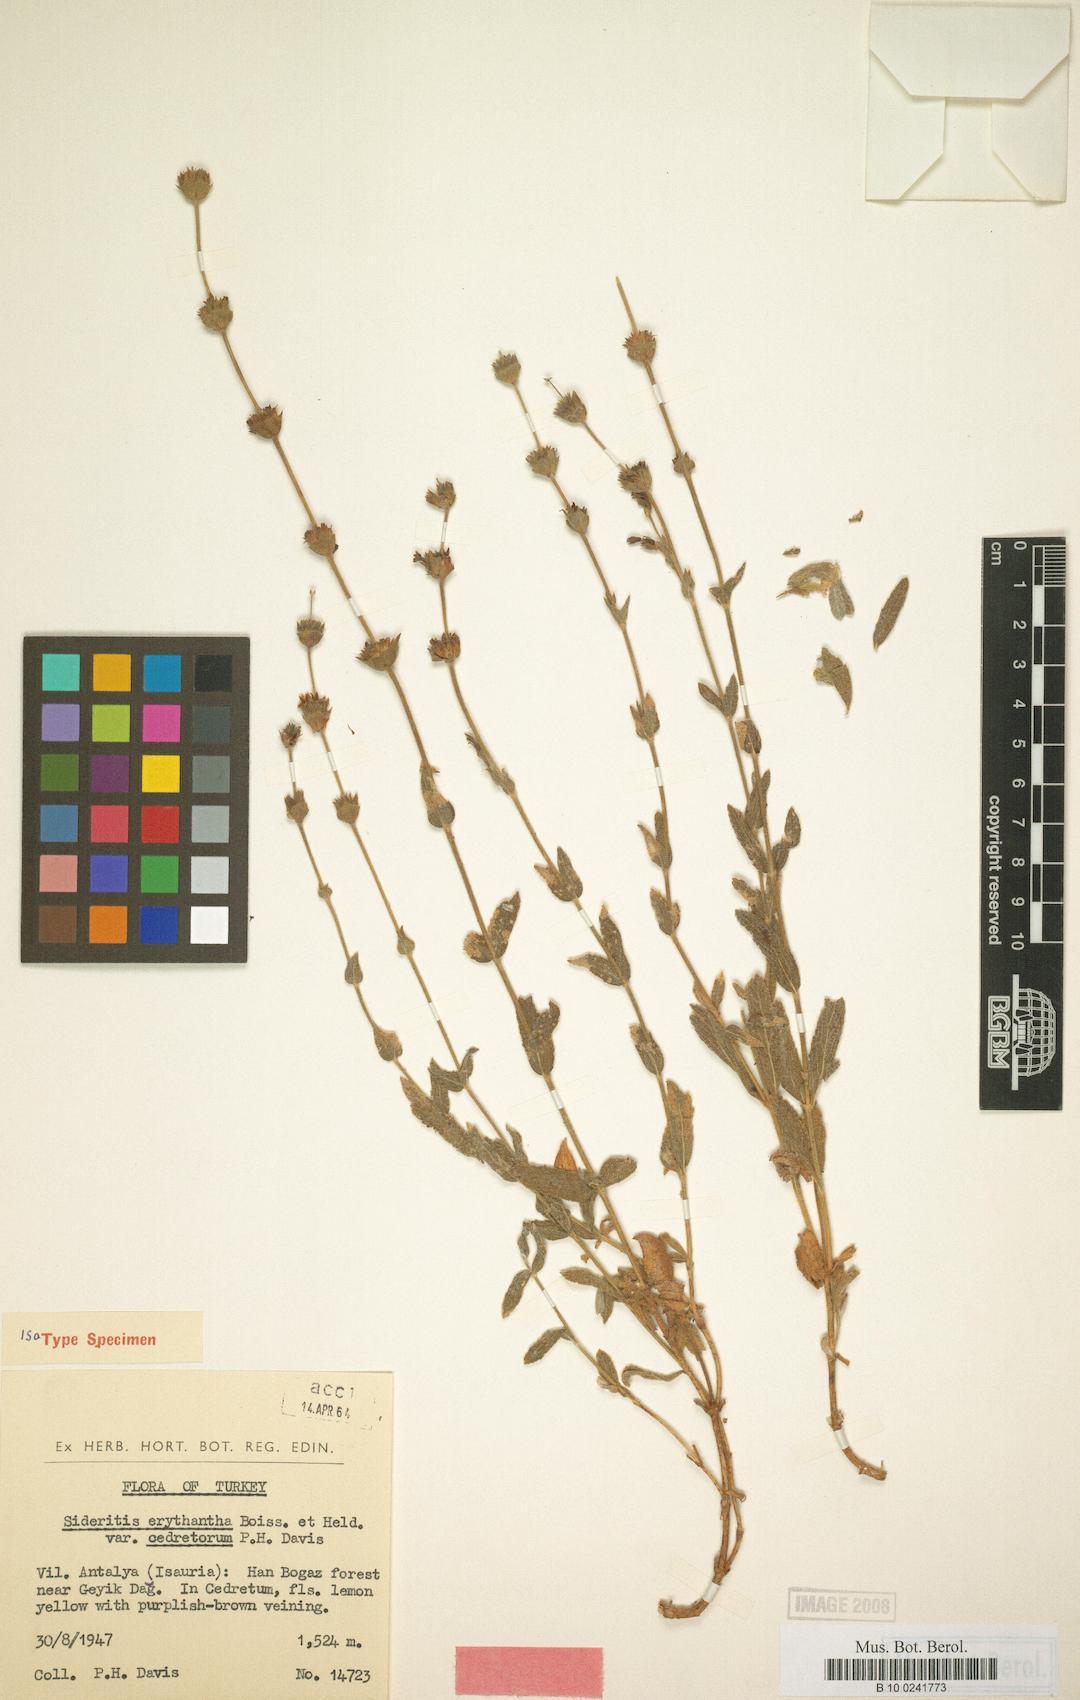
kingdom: Plantae
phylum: Tracheophyta
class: Magnoliopsida
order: Lamiales
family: Lamiaceae
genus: Sideritis
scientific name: Sideritis erythrantha
